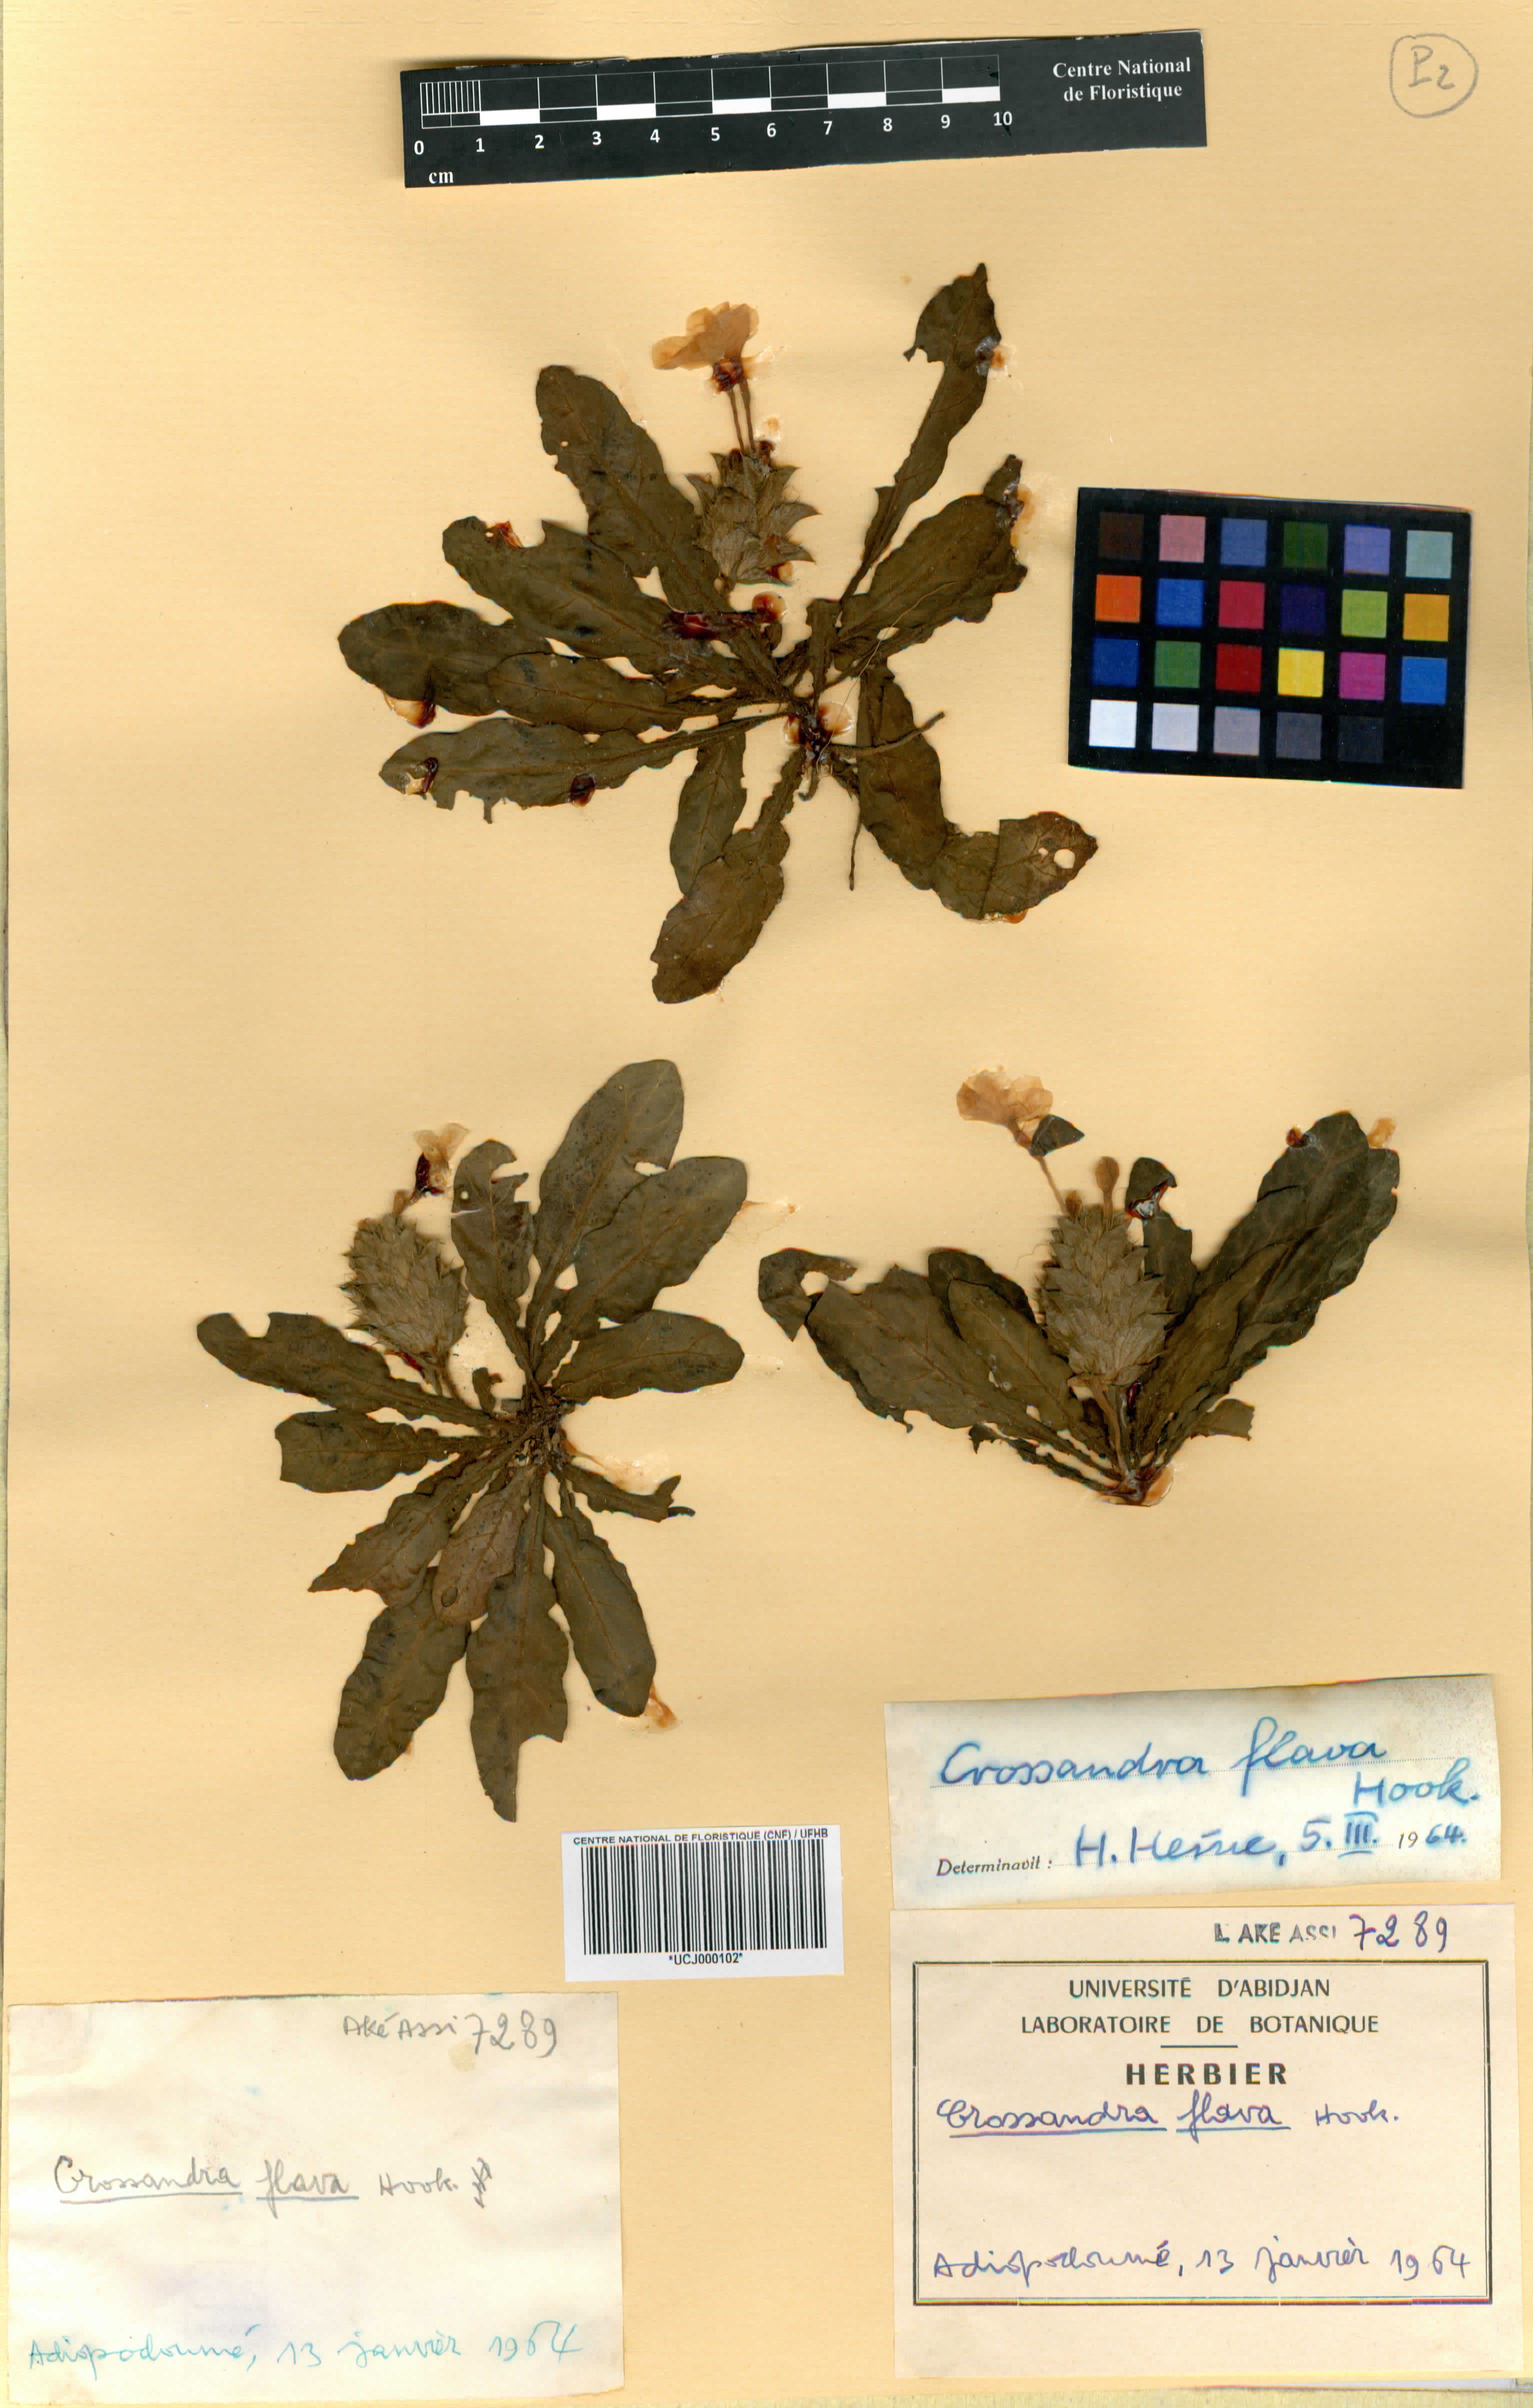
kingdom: Plantae
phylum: Tracheophyta
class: Magnoliopsida
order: Lamiales
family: Acanthaceae
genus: Crossandra
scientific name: Crossandra flava
